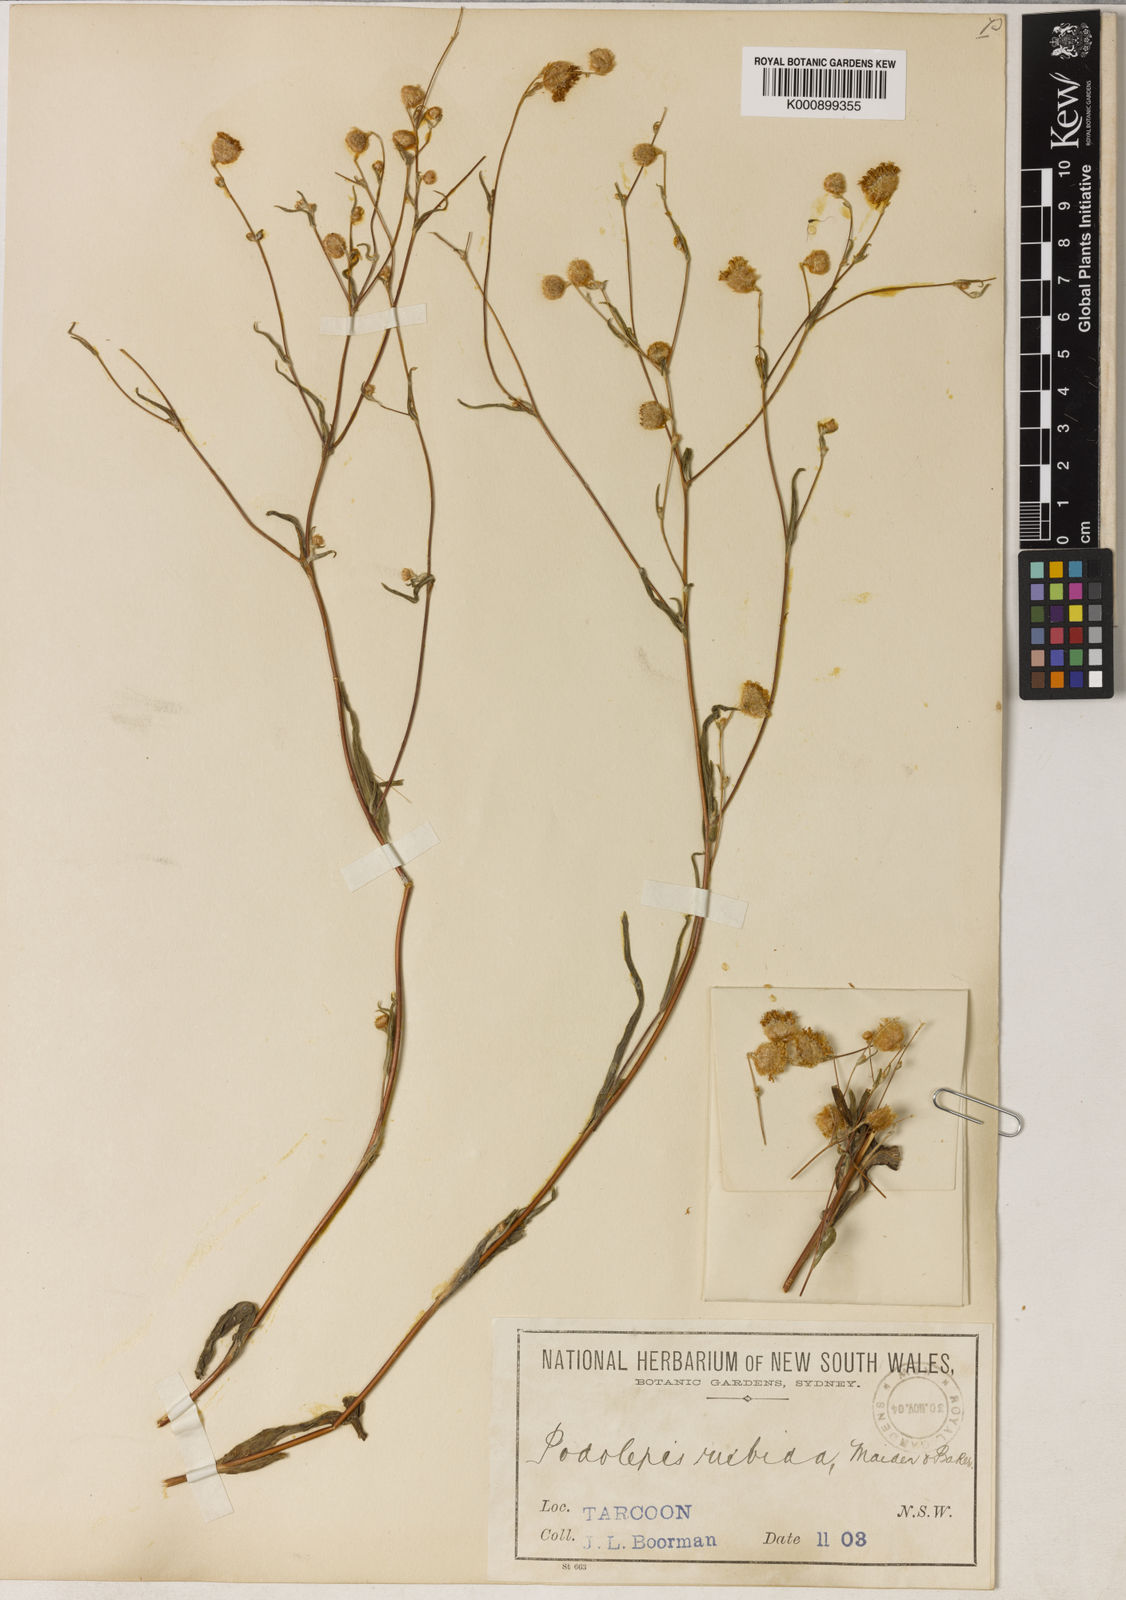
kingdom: Plantae
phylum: Tracheophyta
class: Magnoliopsida
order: Asterales
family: Asteraceae
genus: Podolepis
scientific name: Podolepis canescens
